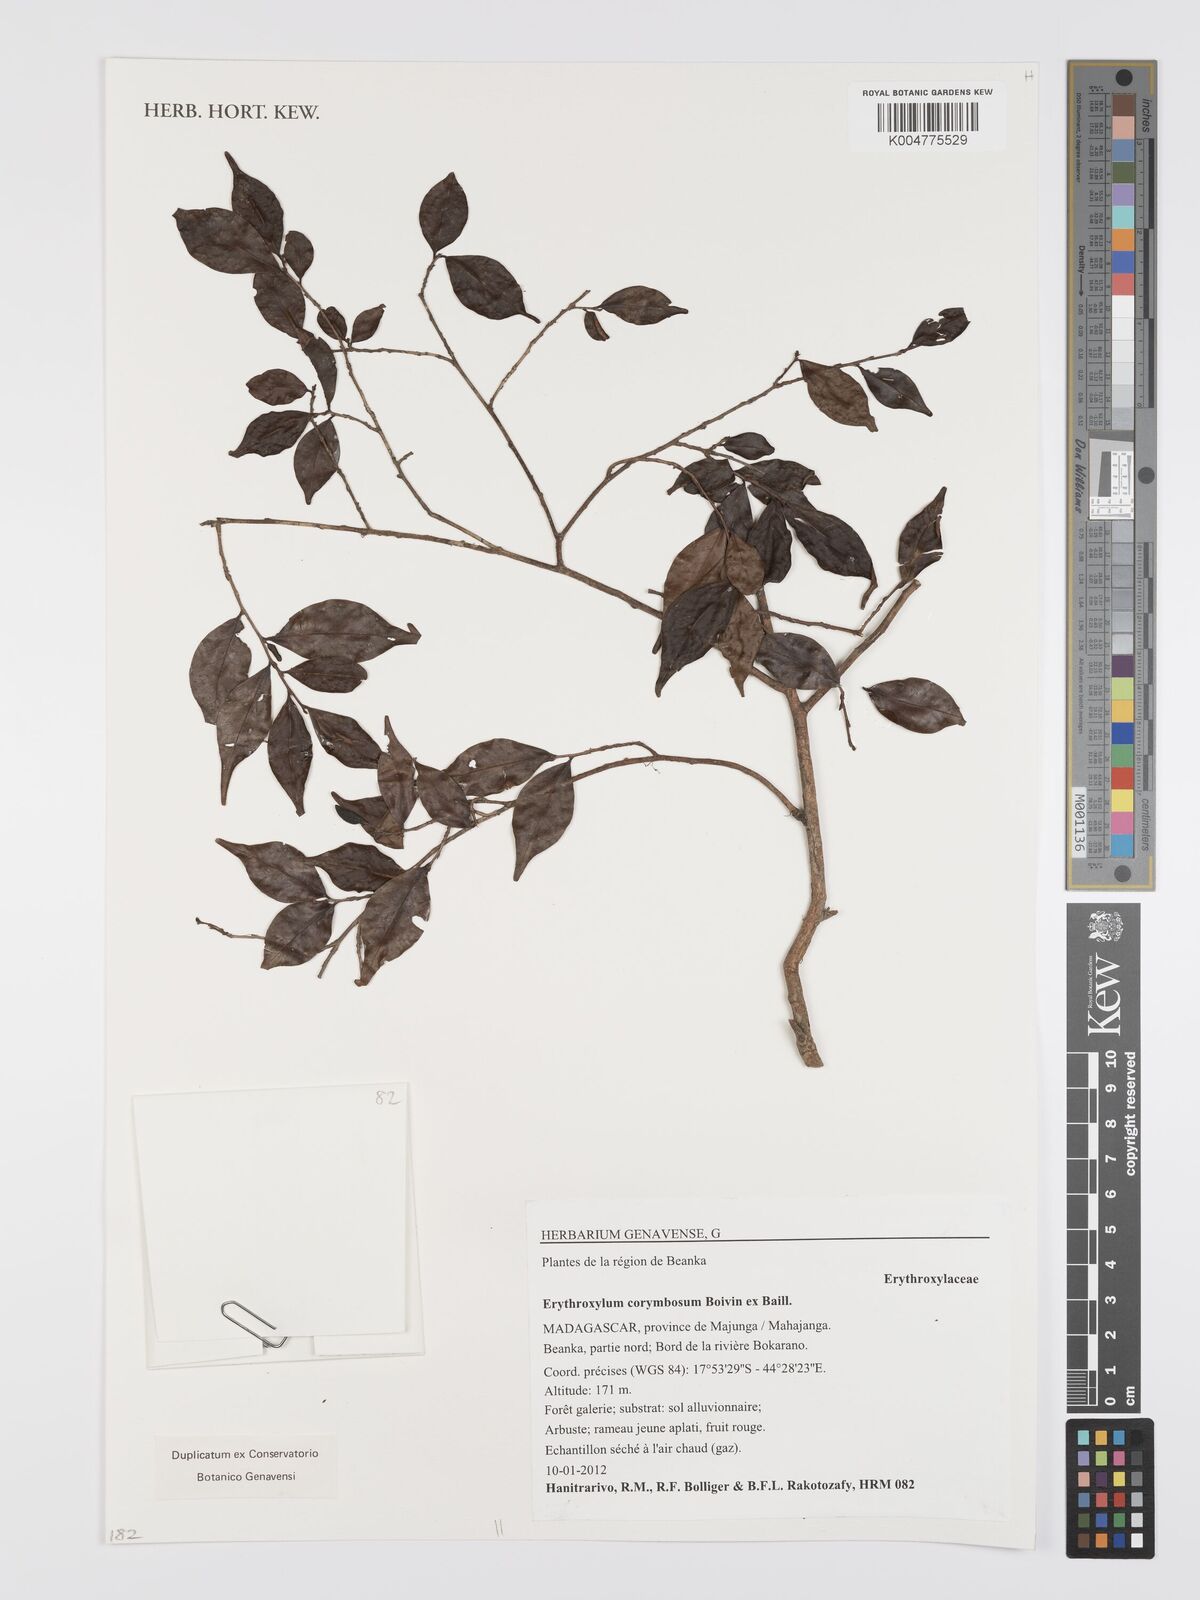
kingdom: Plantae
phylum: Tracheophyta
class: Magnoliopsida
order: Malpighiales
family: Erythroxylaceae
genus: Erythroxylum
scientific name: Erythroxylum corymbosum
